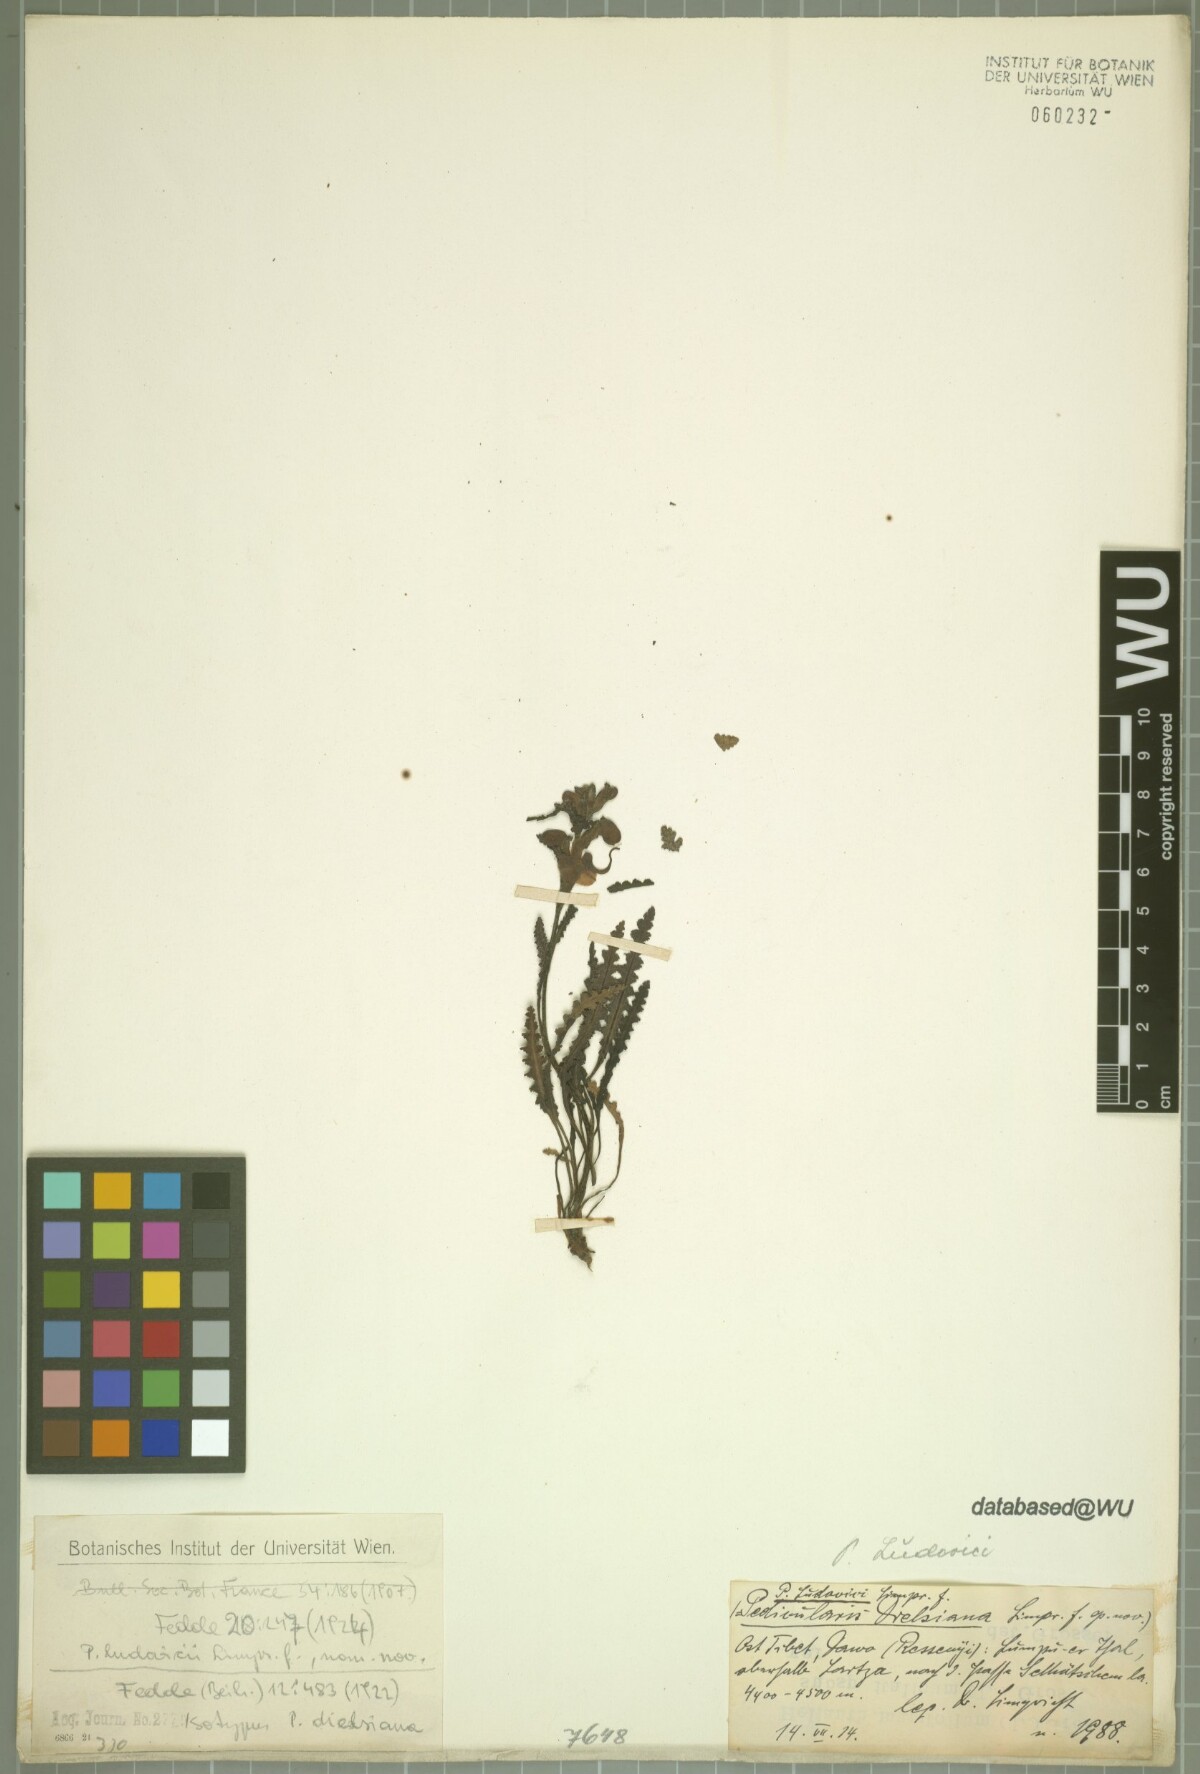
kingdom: Plantae
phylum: Tracheophyta
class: Magnoliopsida
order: Lamiales
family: Orobanchaceae
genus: Pedicularis
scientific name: Pedicularis tibetica
